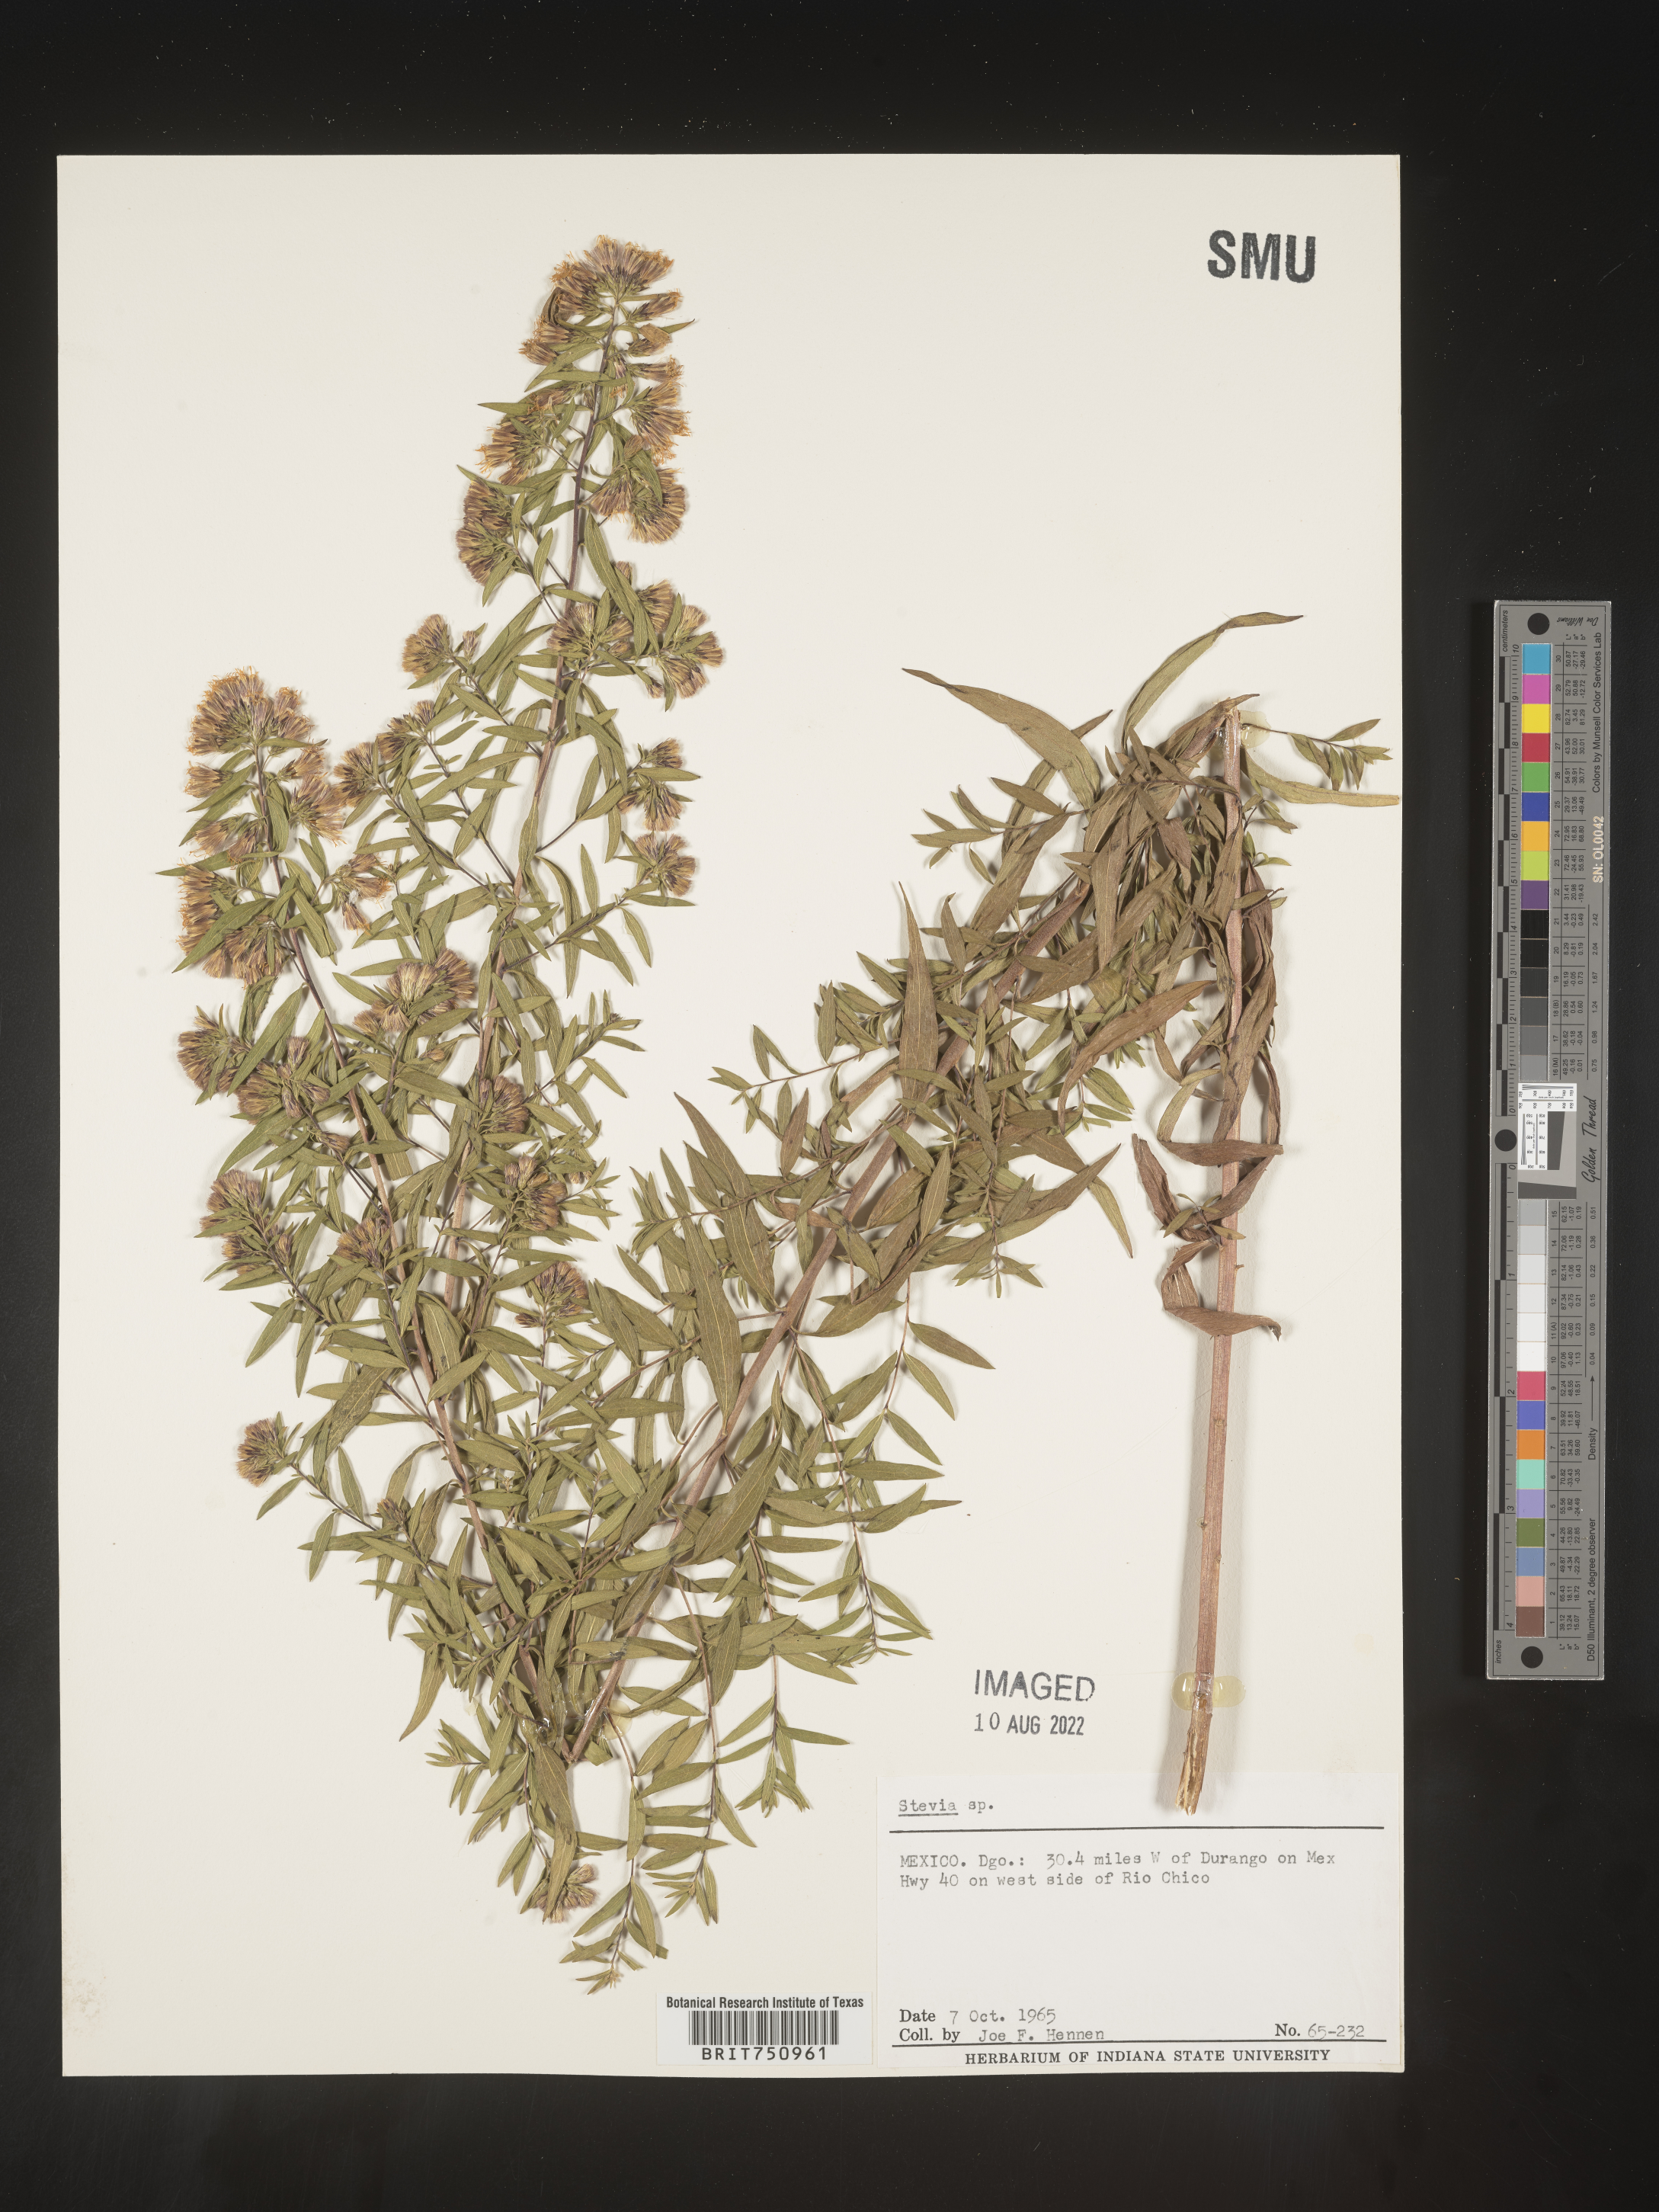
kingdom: Plantae
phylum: Tracheophyta
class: Magnoliopsida
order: Asterales
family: Asteraceae
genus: Stevia
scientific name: Stevia
